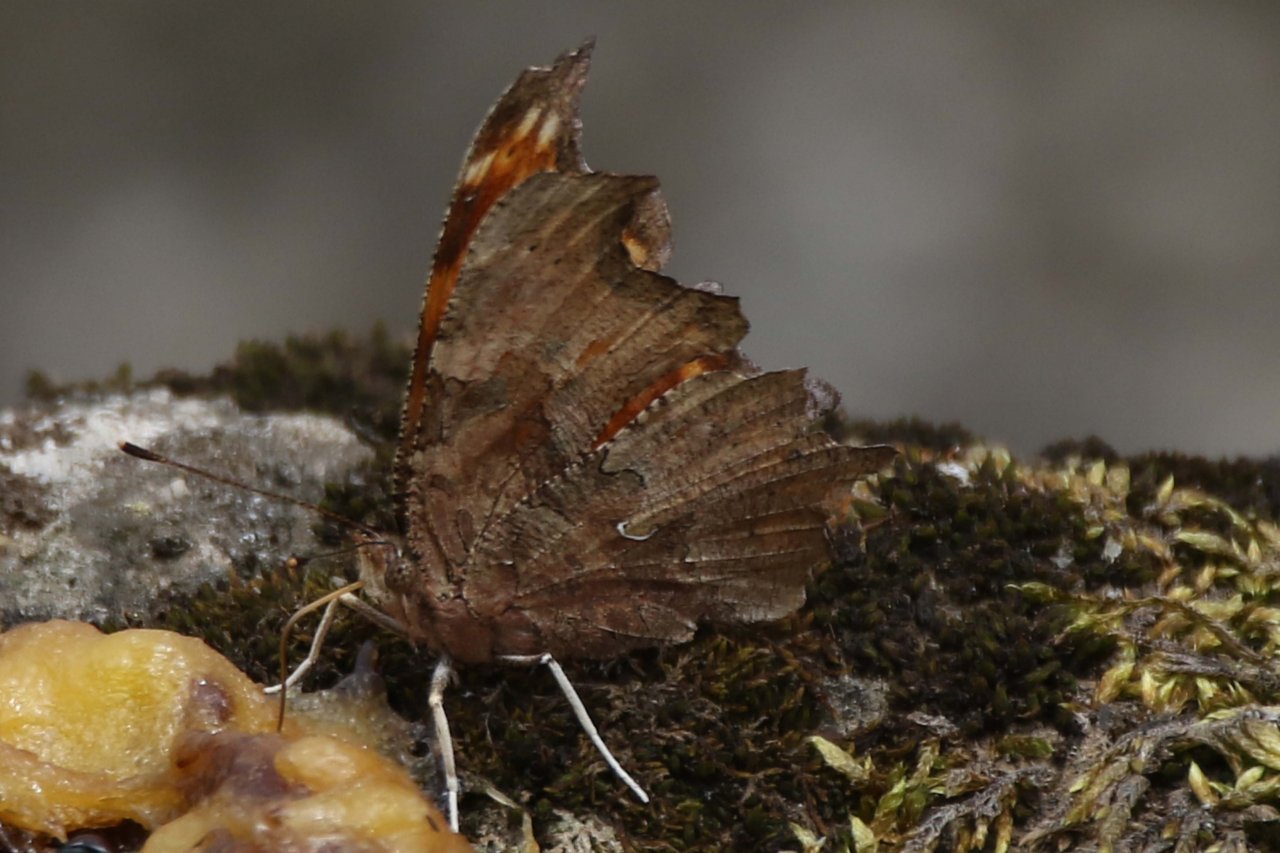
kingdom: Animalia
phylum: Arthropoda
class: Insecta
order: Lepidoptera
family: Nymphalidae
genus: Polygonia
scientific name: Polygonia comma
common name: Eastern Comma
